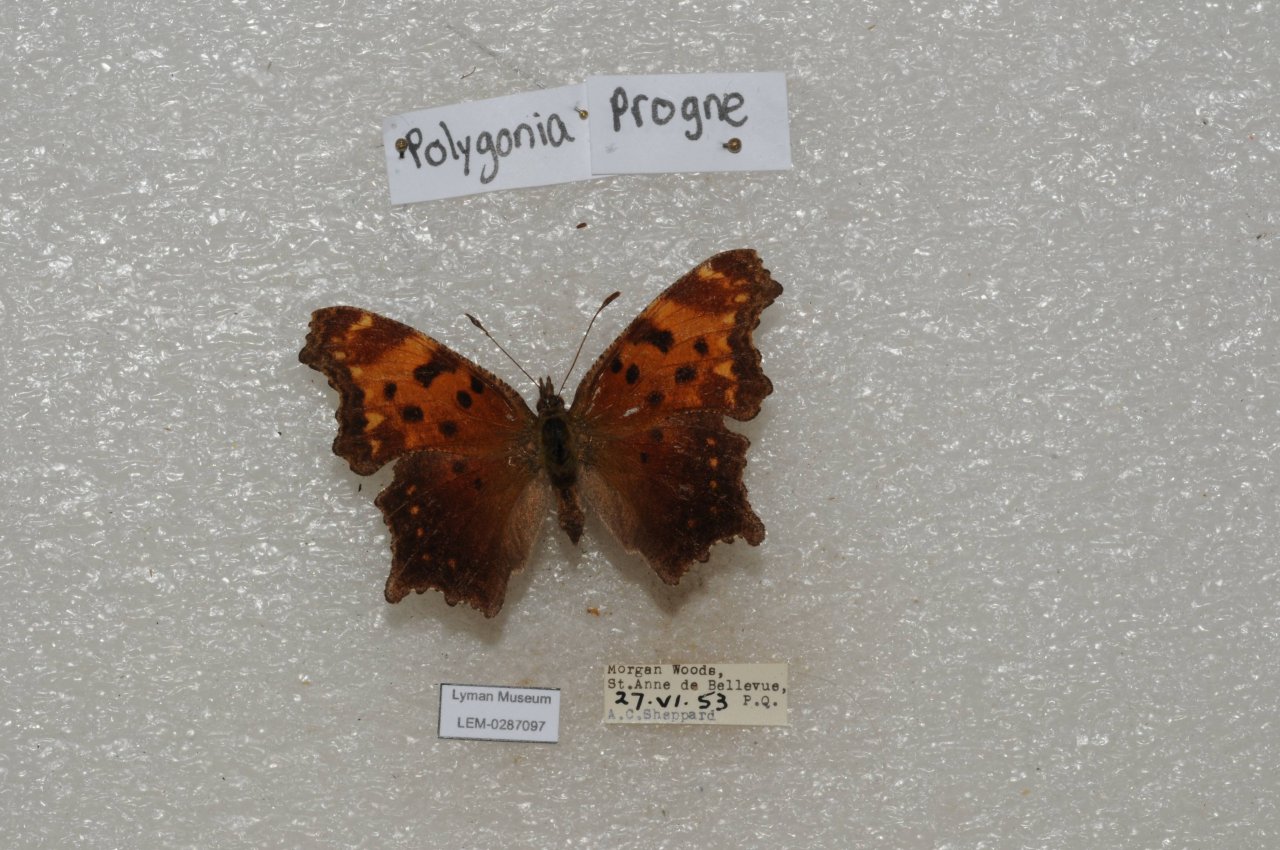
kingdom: Animalia
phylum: Arthropoda
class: Insecta
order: Lepidoptera
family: Nymphalidae
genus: Polygonia
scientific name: Polygonia progne
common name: Gray Comma
